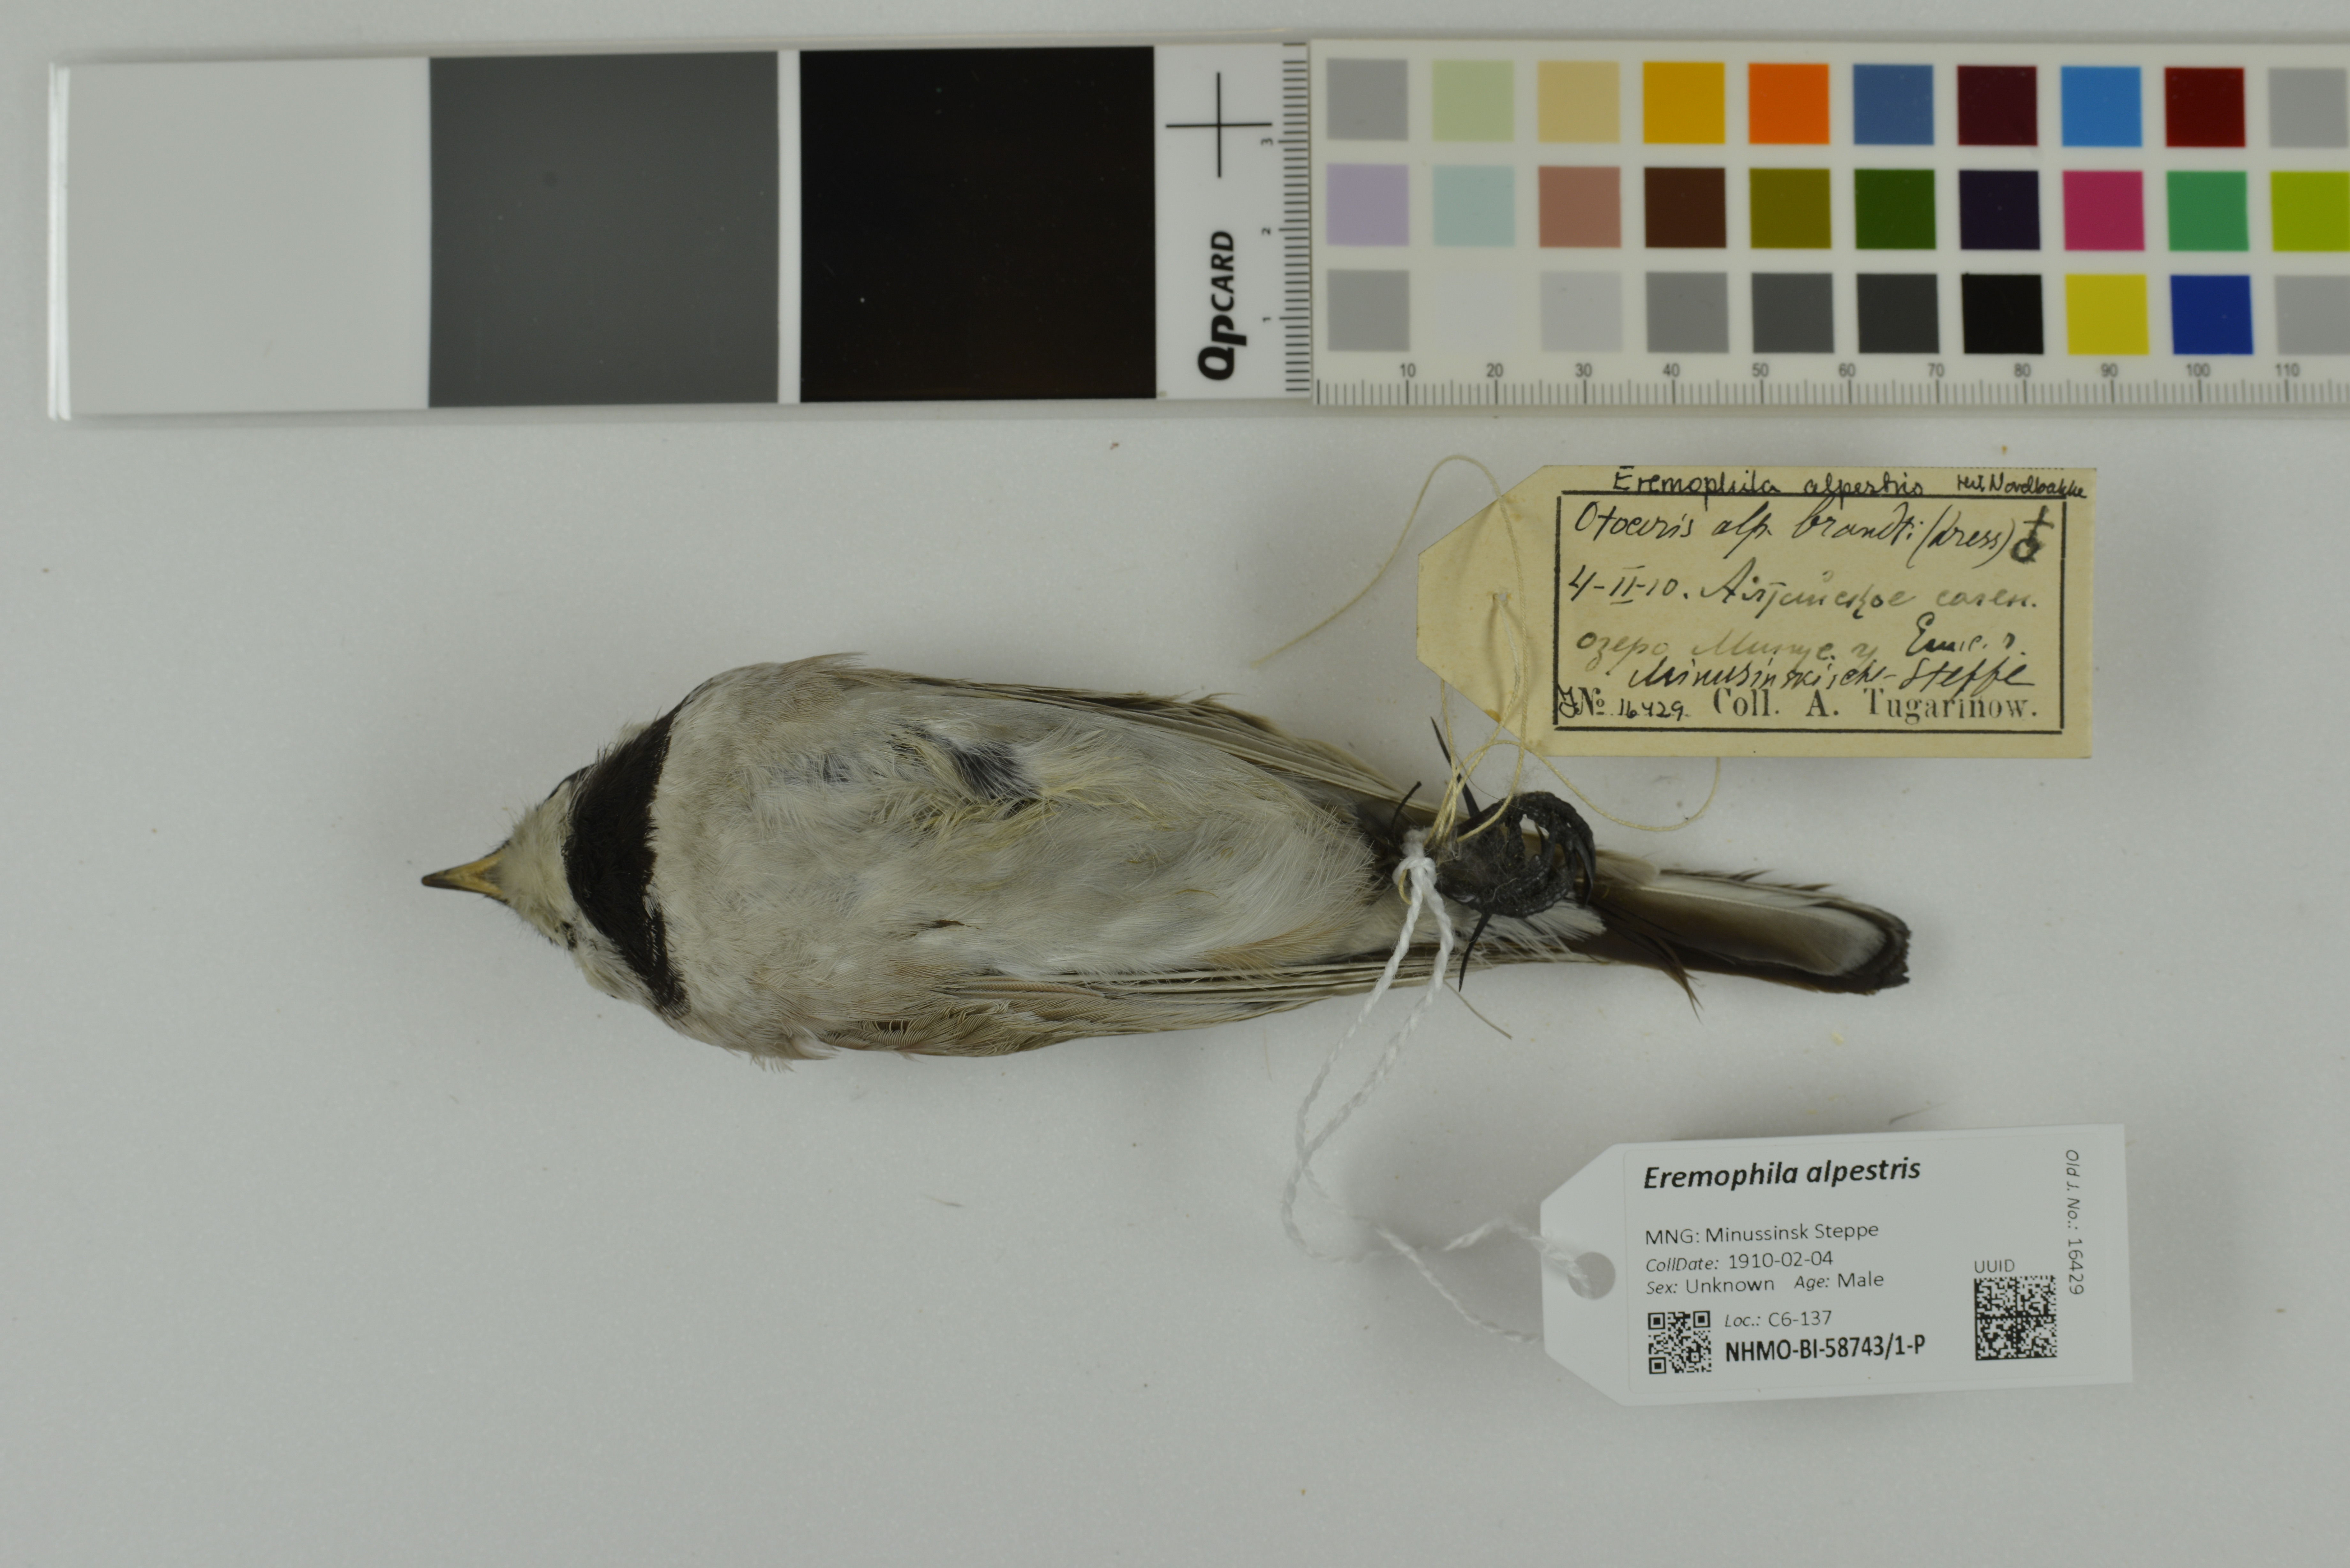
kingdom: Animalia
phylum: Chordata
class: Aves
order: Passeriformes
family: Alaudidae
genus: Eremophila
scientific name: Eremophila alpestris
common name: Horned lark
